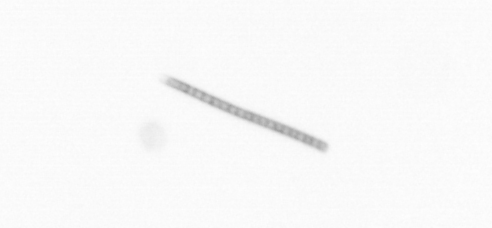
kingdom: Chromista
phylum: Ochrophyta
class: Bacillariophyceae
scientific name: Bacillariophyceae
